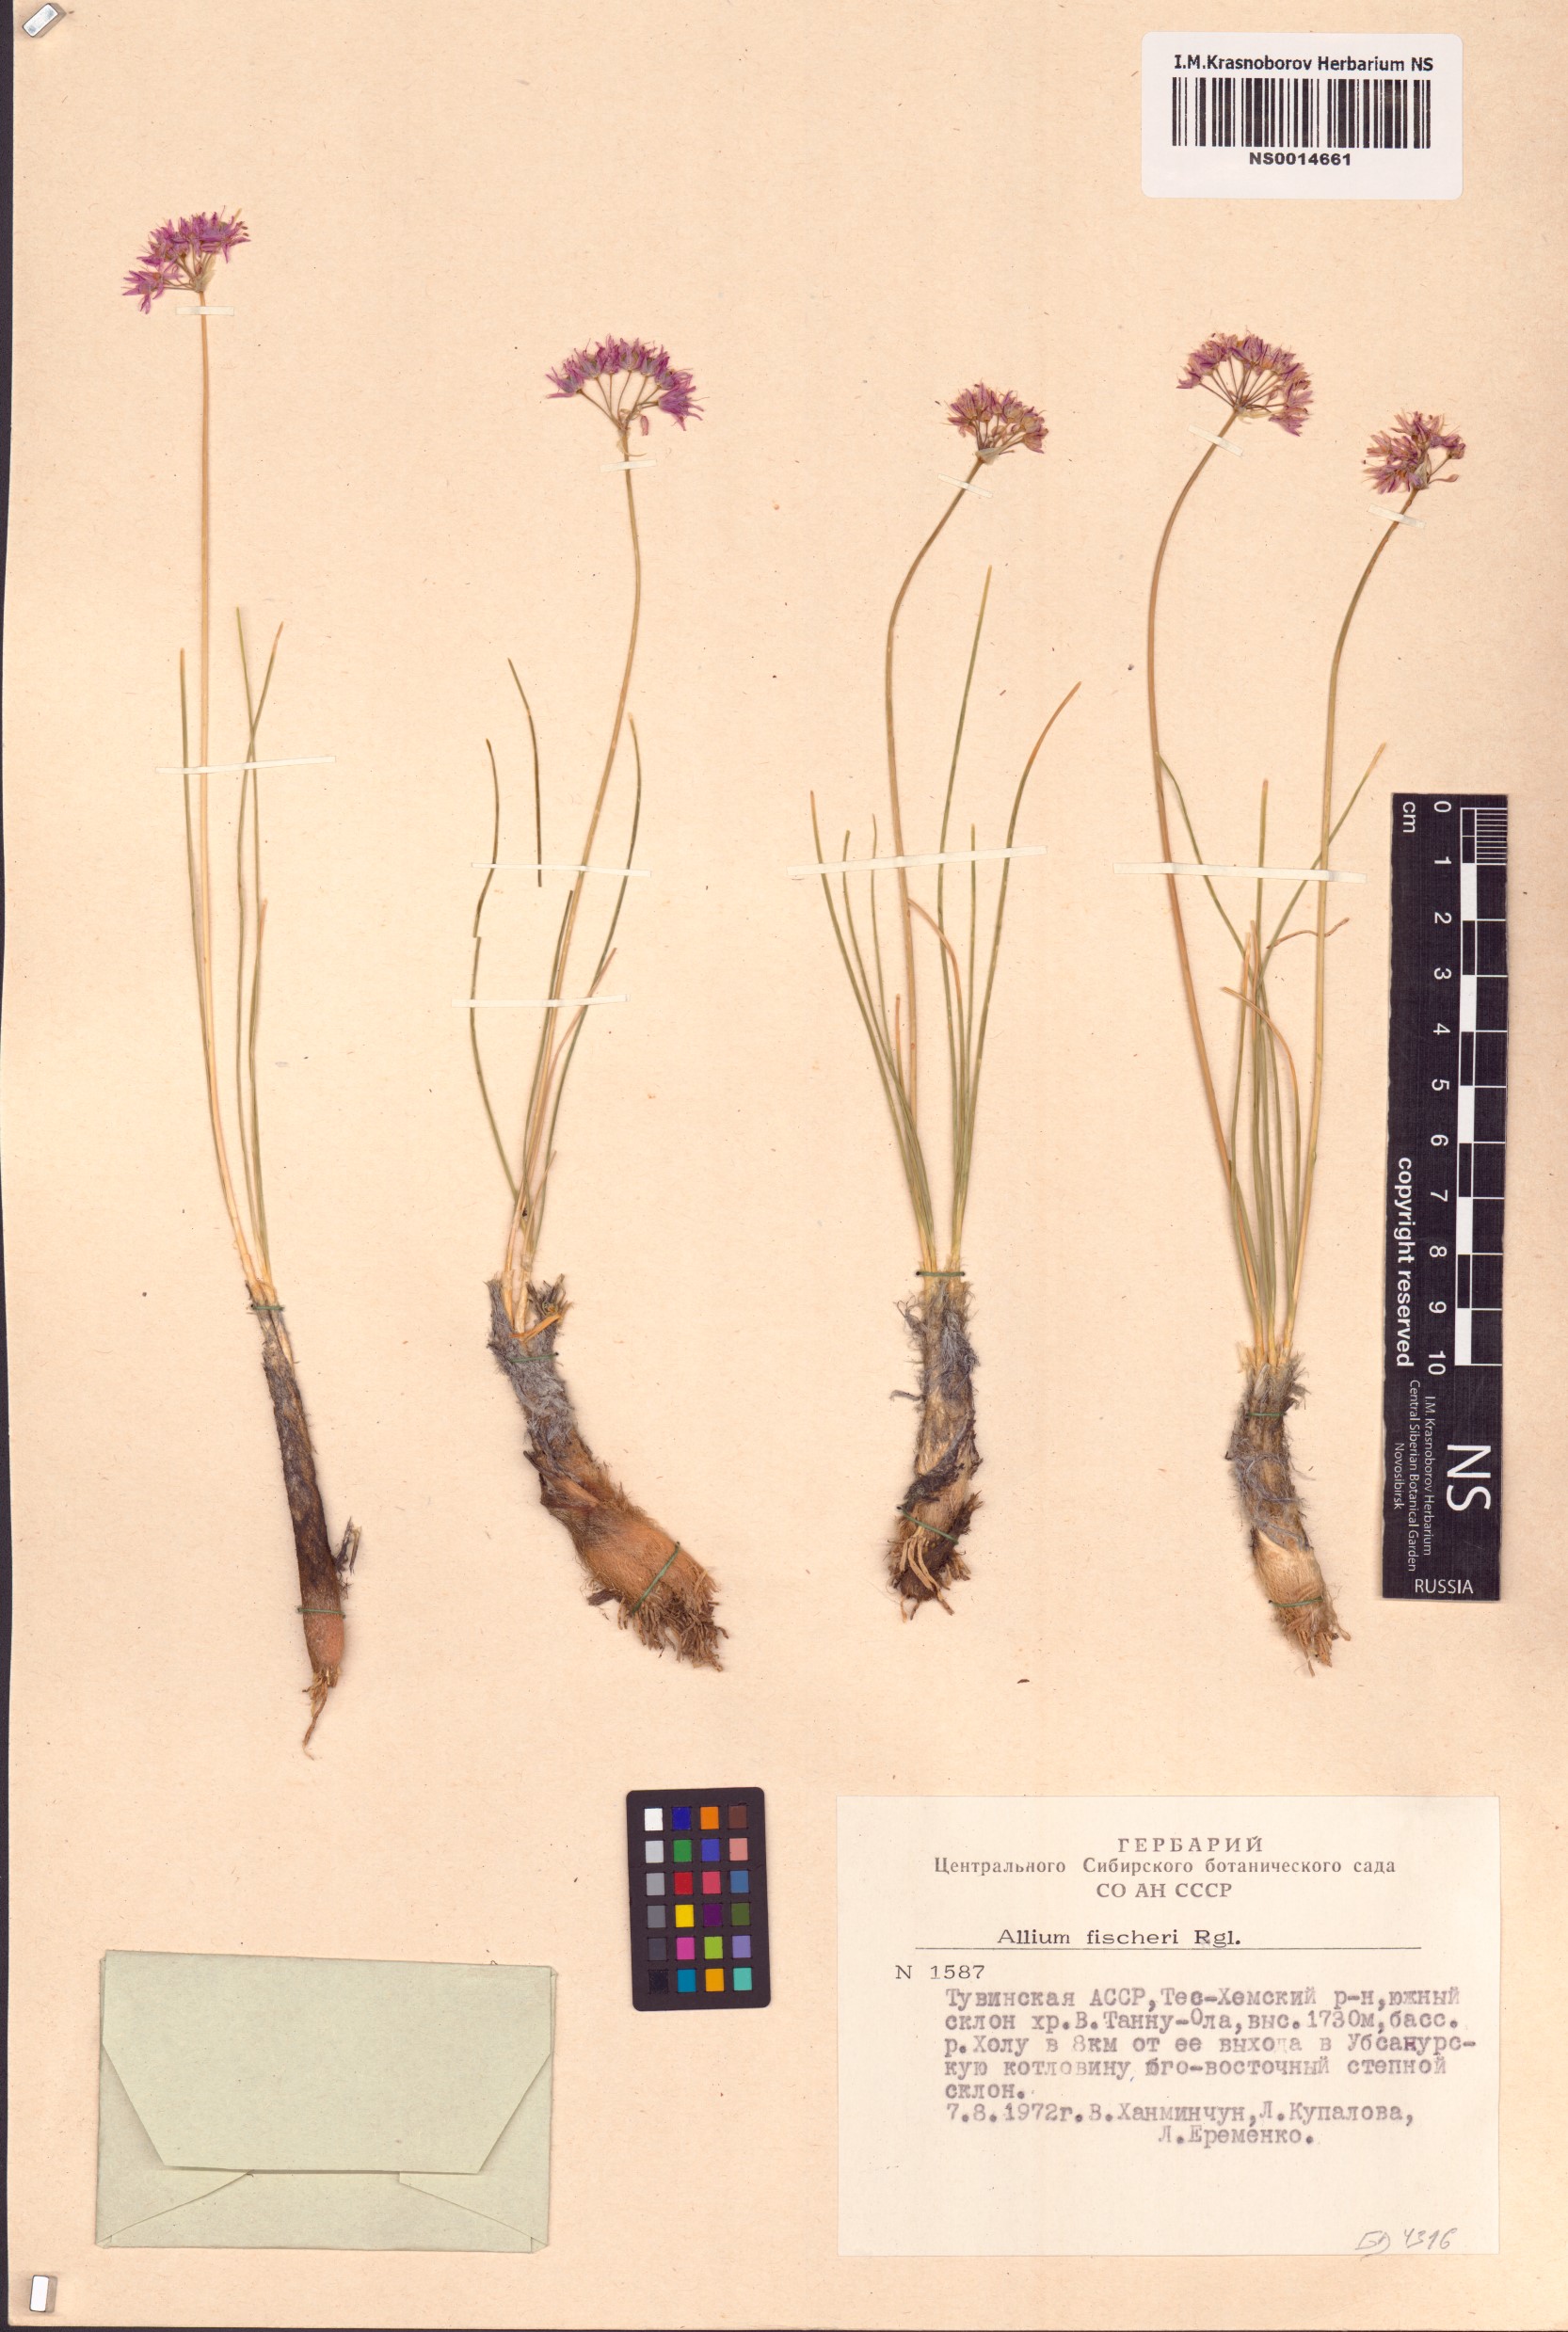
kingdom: Plantae
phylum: Tracheophyta
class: Liliopsida
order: Asparagales
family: Amaryllidaceae
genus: Allium
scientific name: Allium eduardi
